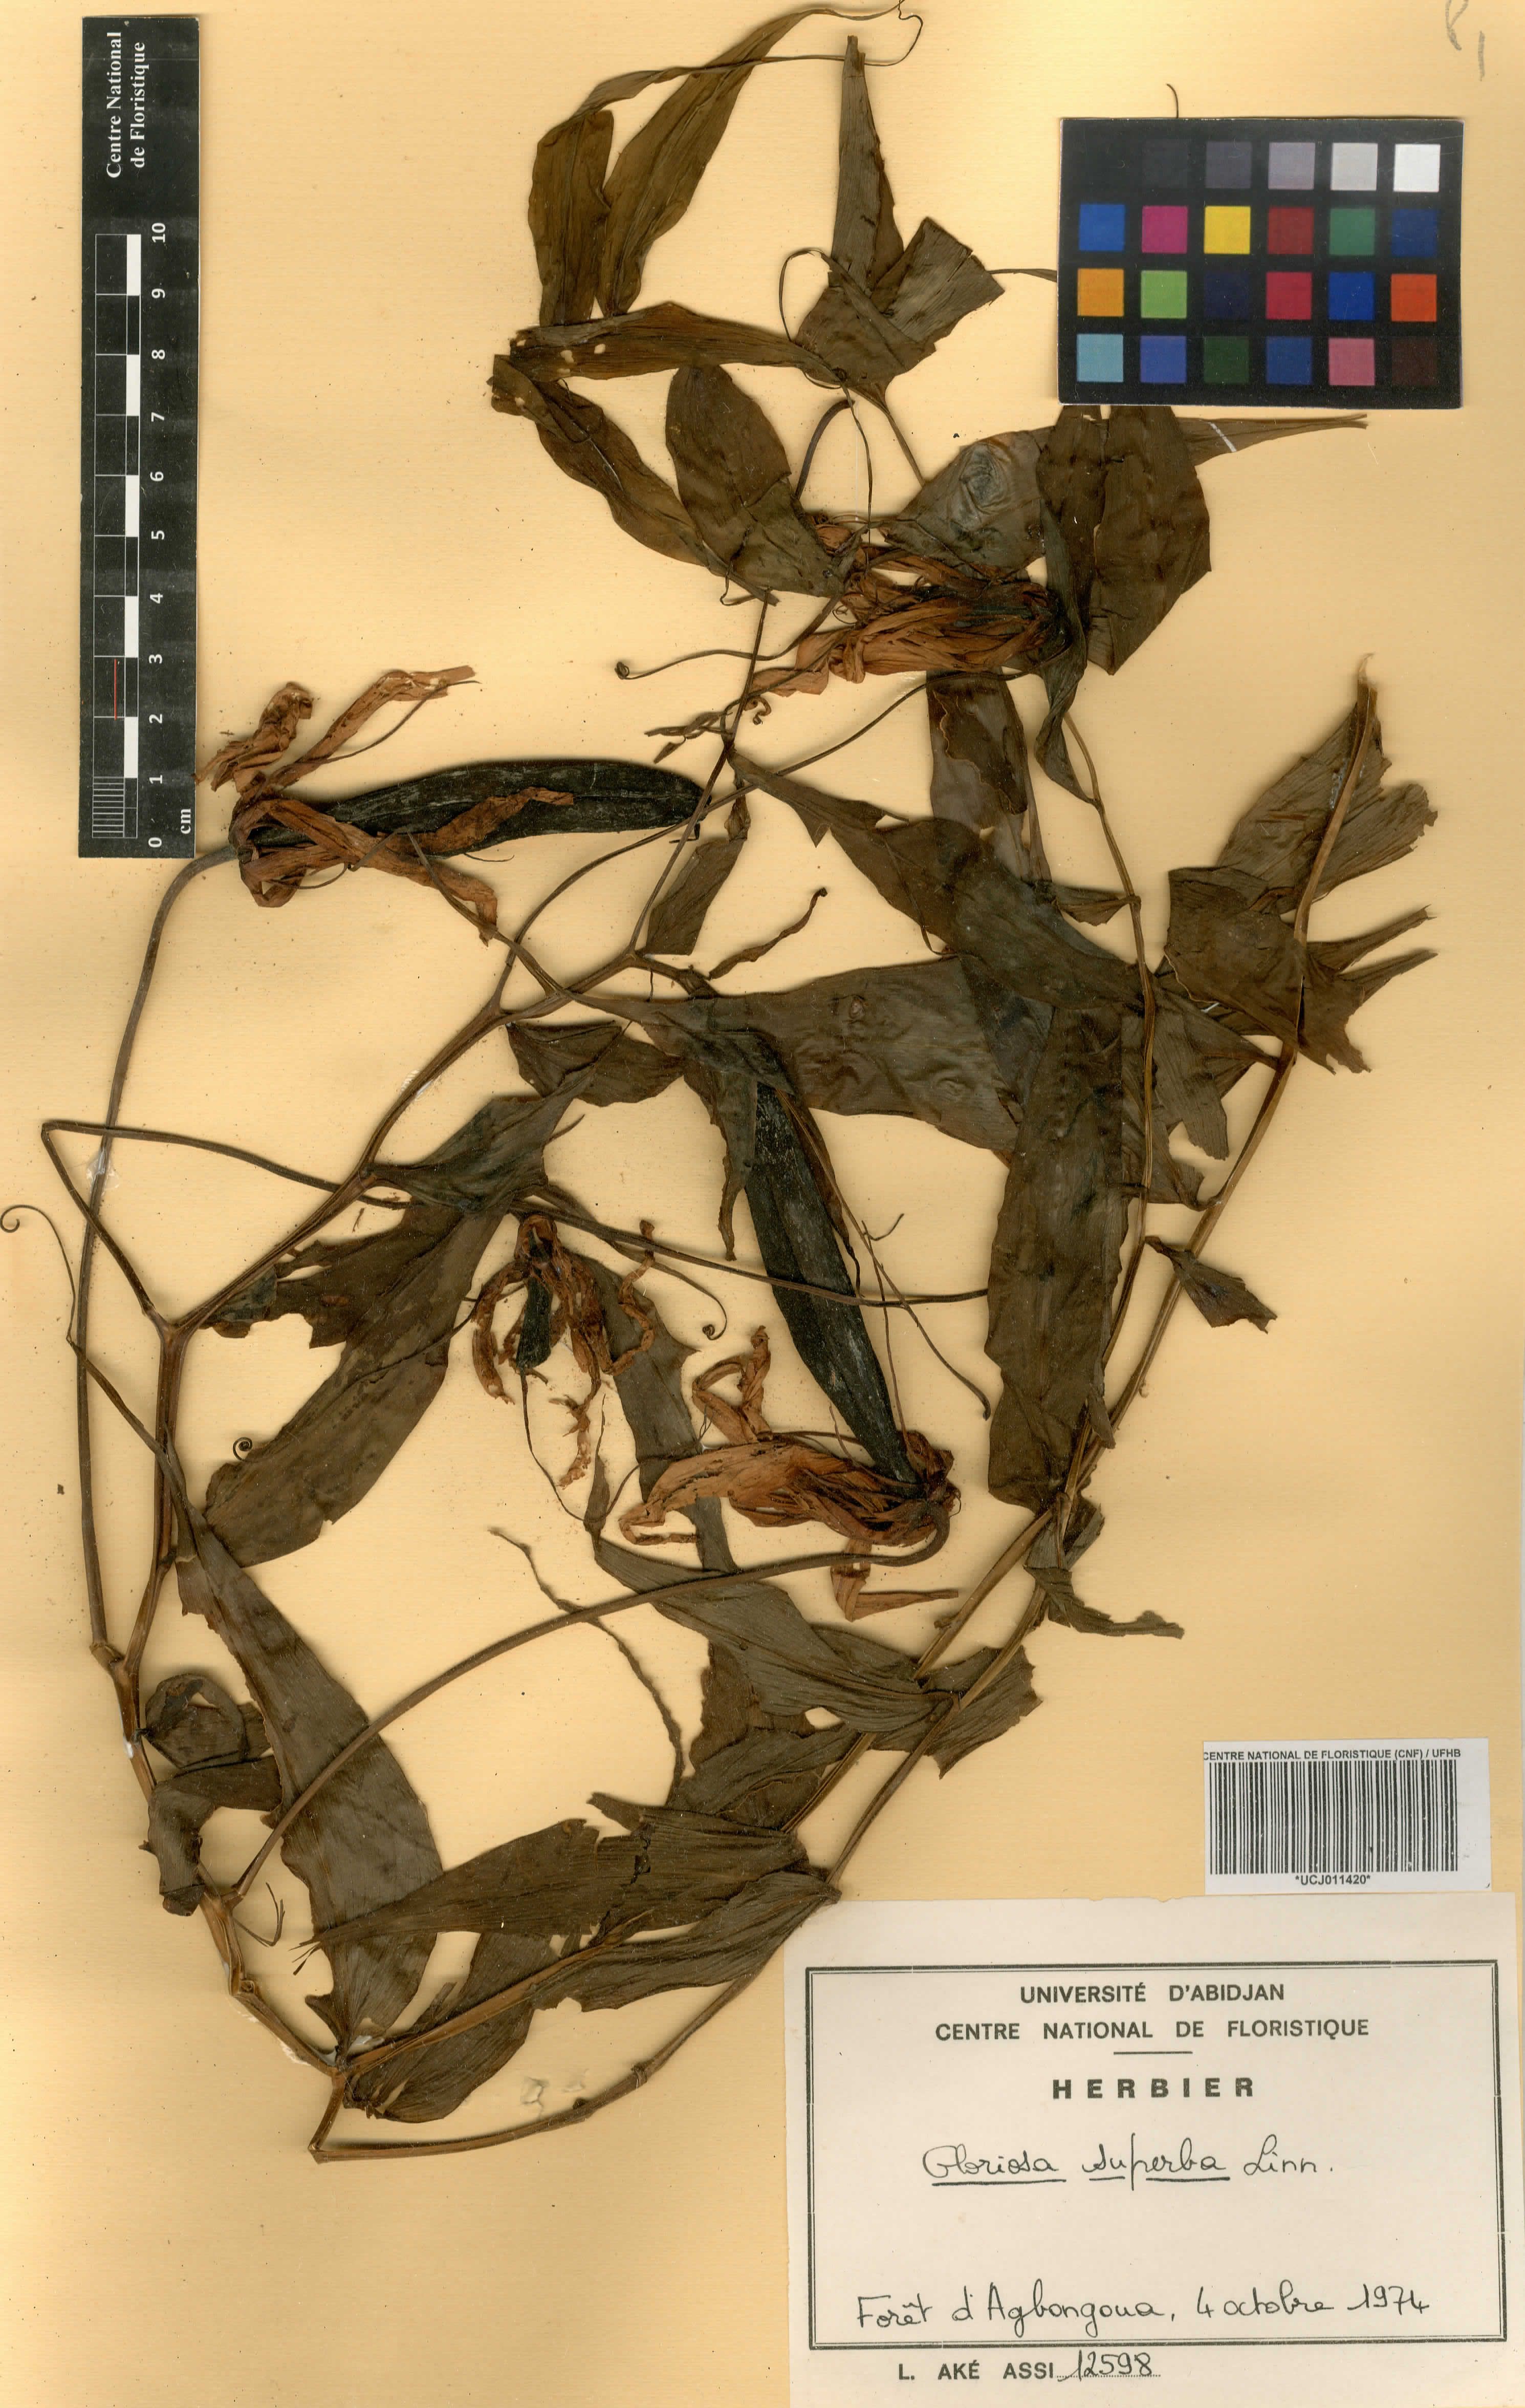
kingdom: Plantae
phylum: Tracheophyta
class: Liliopsida
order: Liliales
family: Colchicaceae
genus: Gloriosa
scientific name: Gloriosa superba
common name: Flame lily
